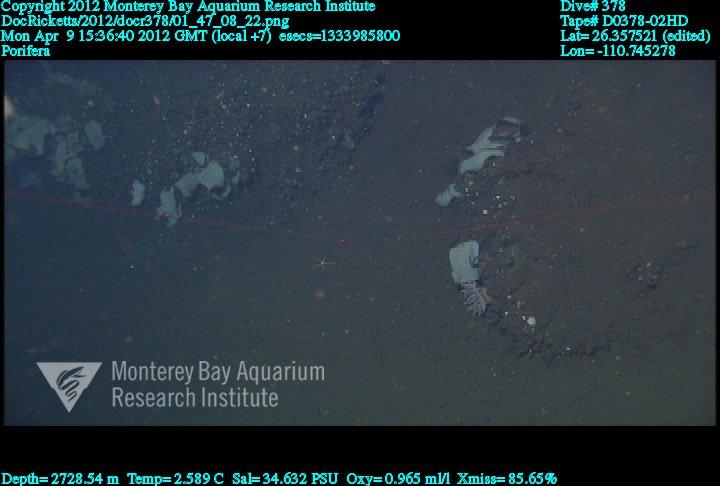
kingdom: Animalia
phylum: Porifera
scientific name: Porifera
